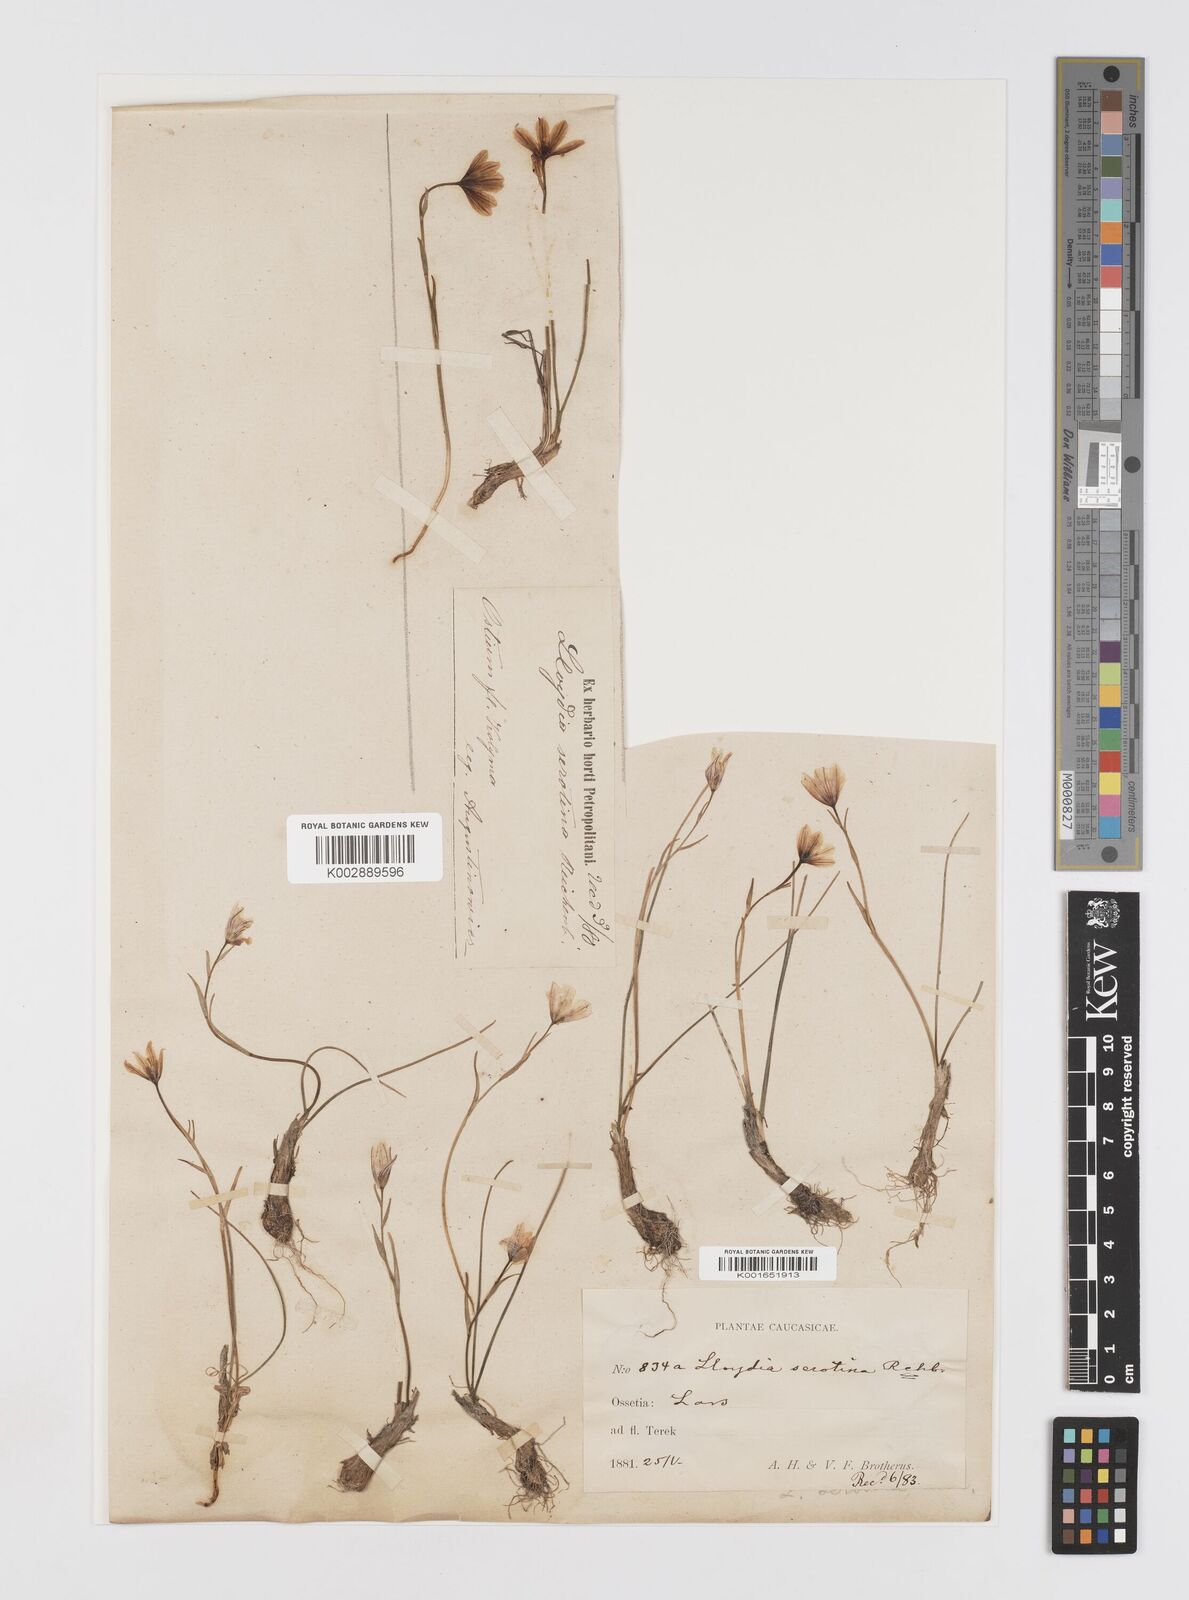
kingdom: Plantae
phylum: Tracheophyta
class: Liliopsida
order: Liliales
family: Liliaceae
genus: Gagea
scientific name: Gagea serotina
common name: Snowdon lily
